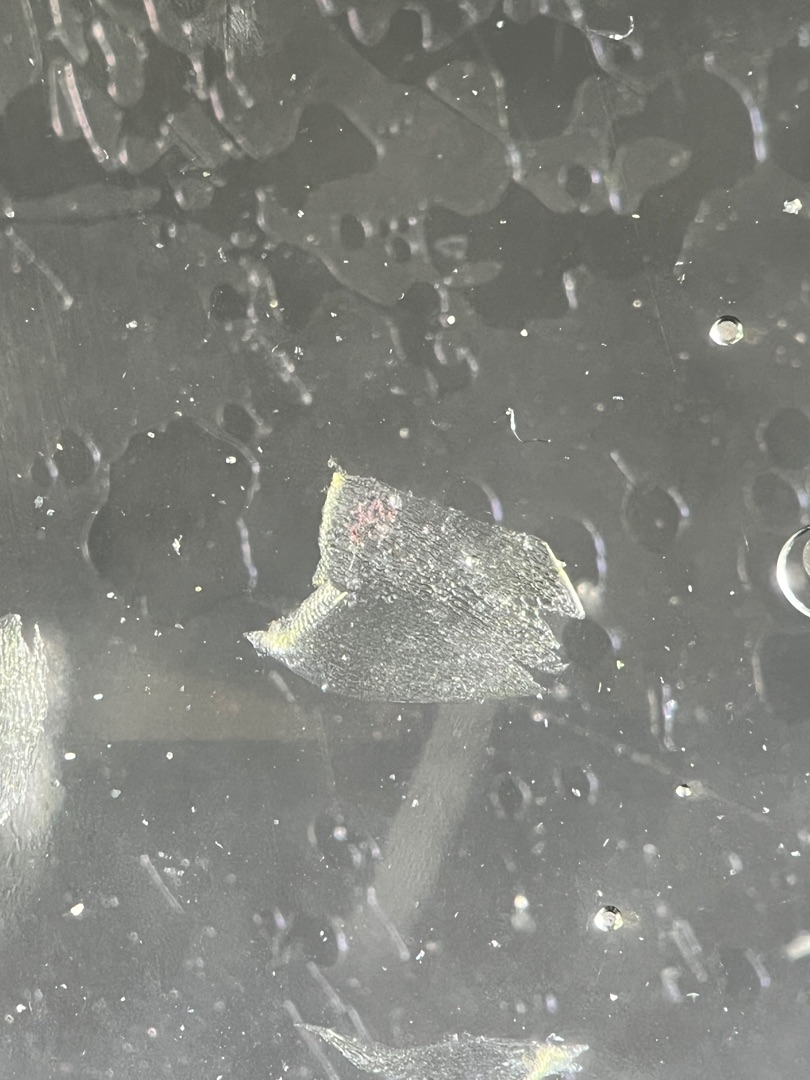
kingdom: Plantae
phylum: Bryophyta
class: Sphagnopsida
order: Sphagnales
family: Sphagnaceae
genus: Sphagnum
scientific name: Sphagnum riparium
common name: Kløftet tørvemos
